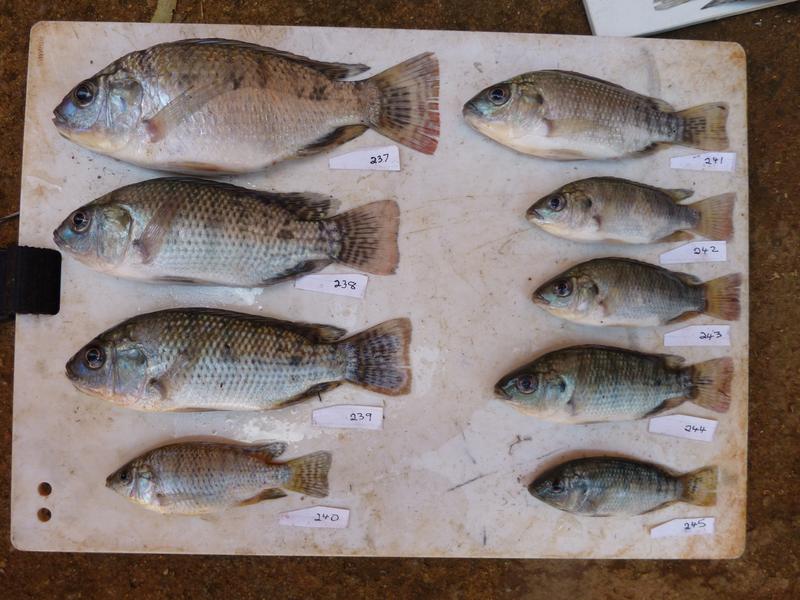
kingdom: Animalia
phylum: Chordata
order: Perciformes
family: Cichlidae
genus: Oreochromis
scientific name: Oreochromis
